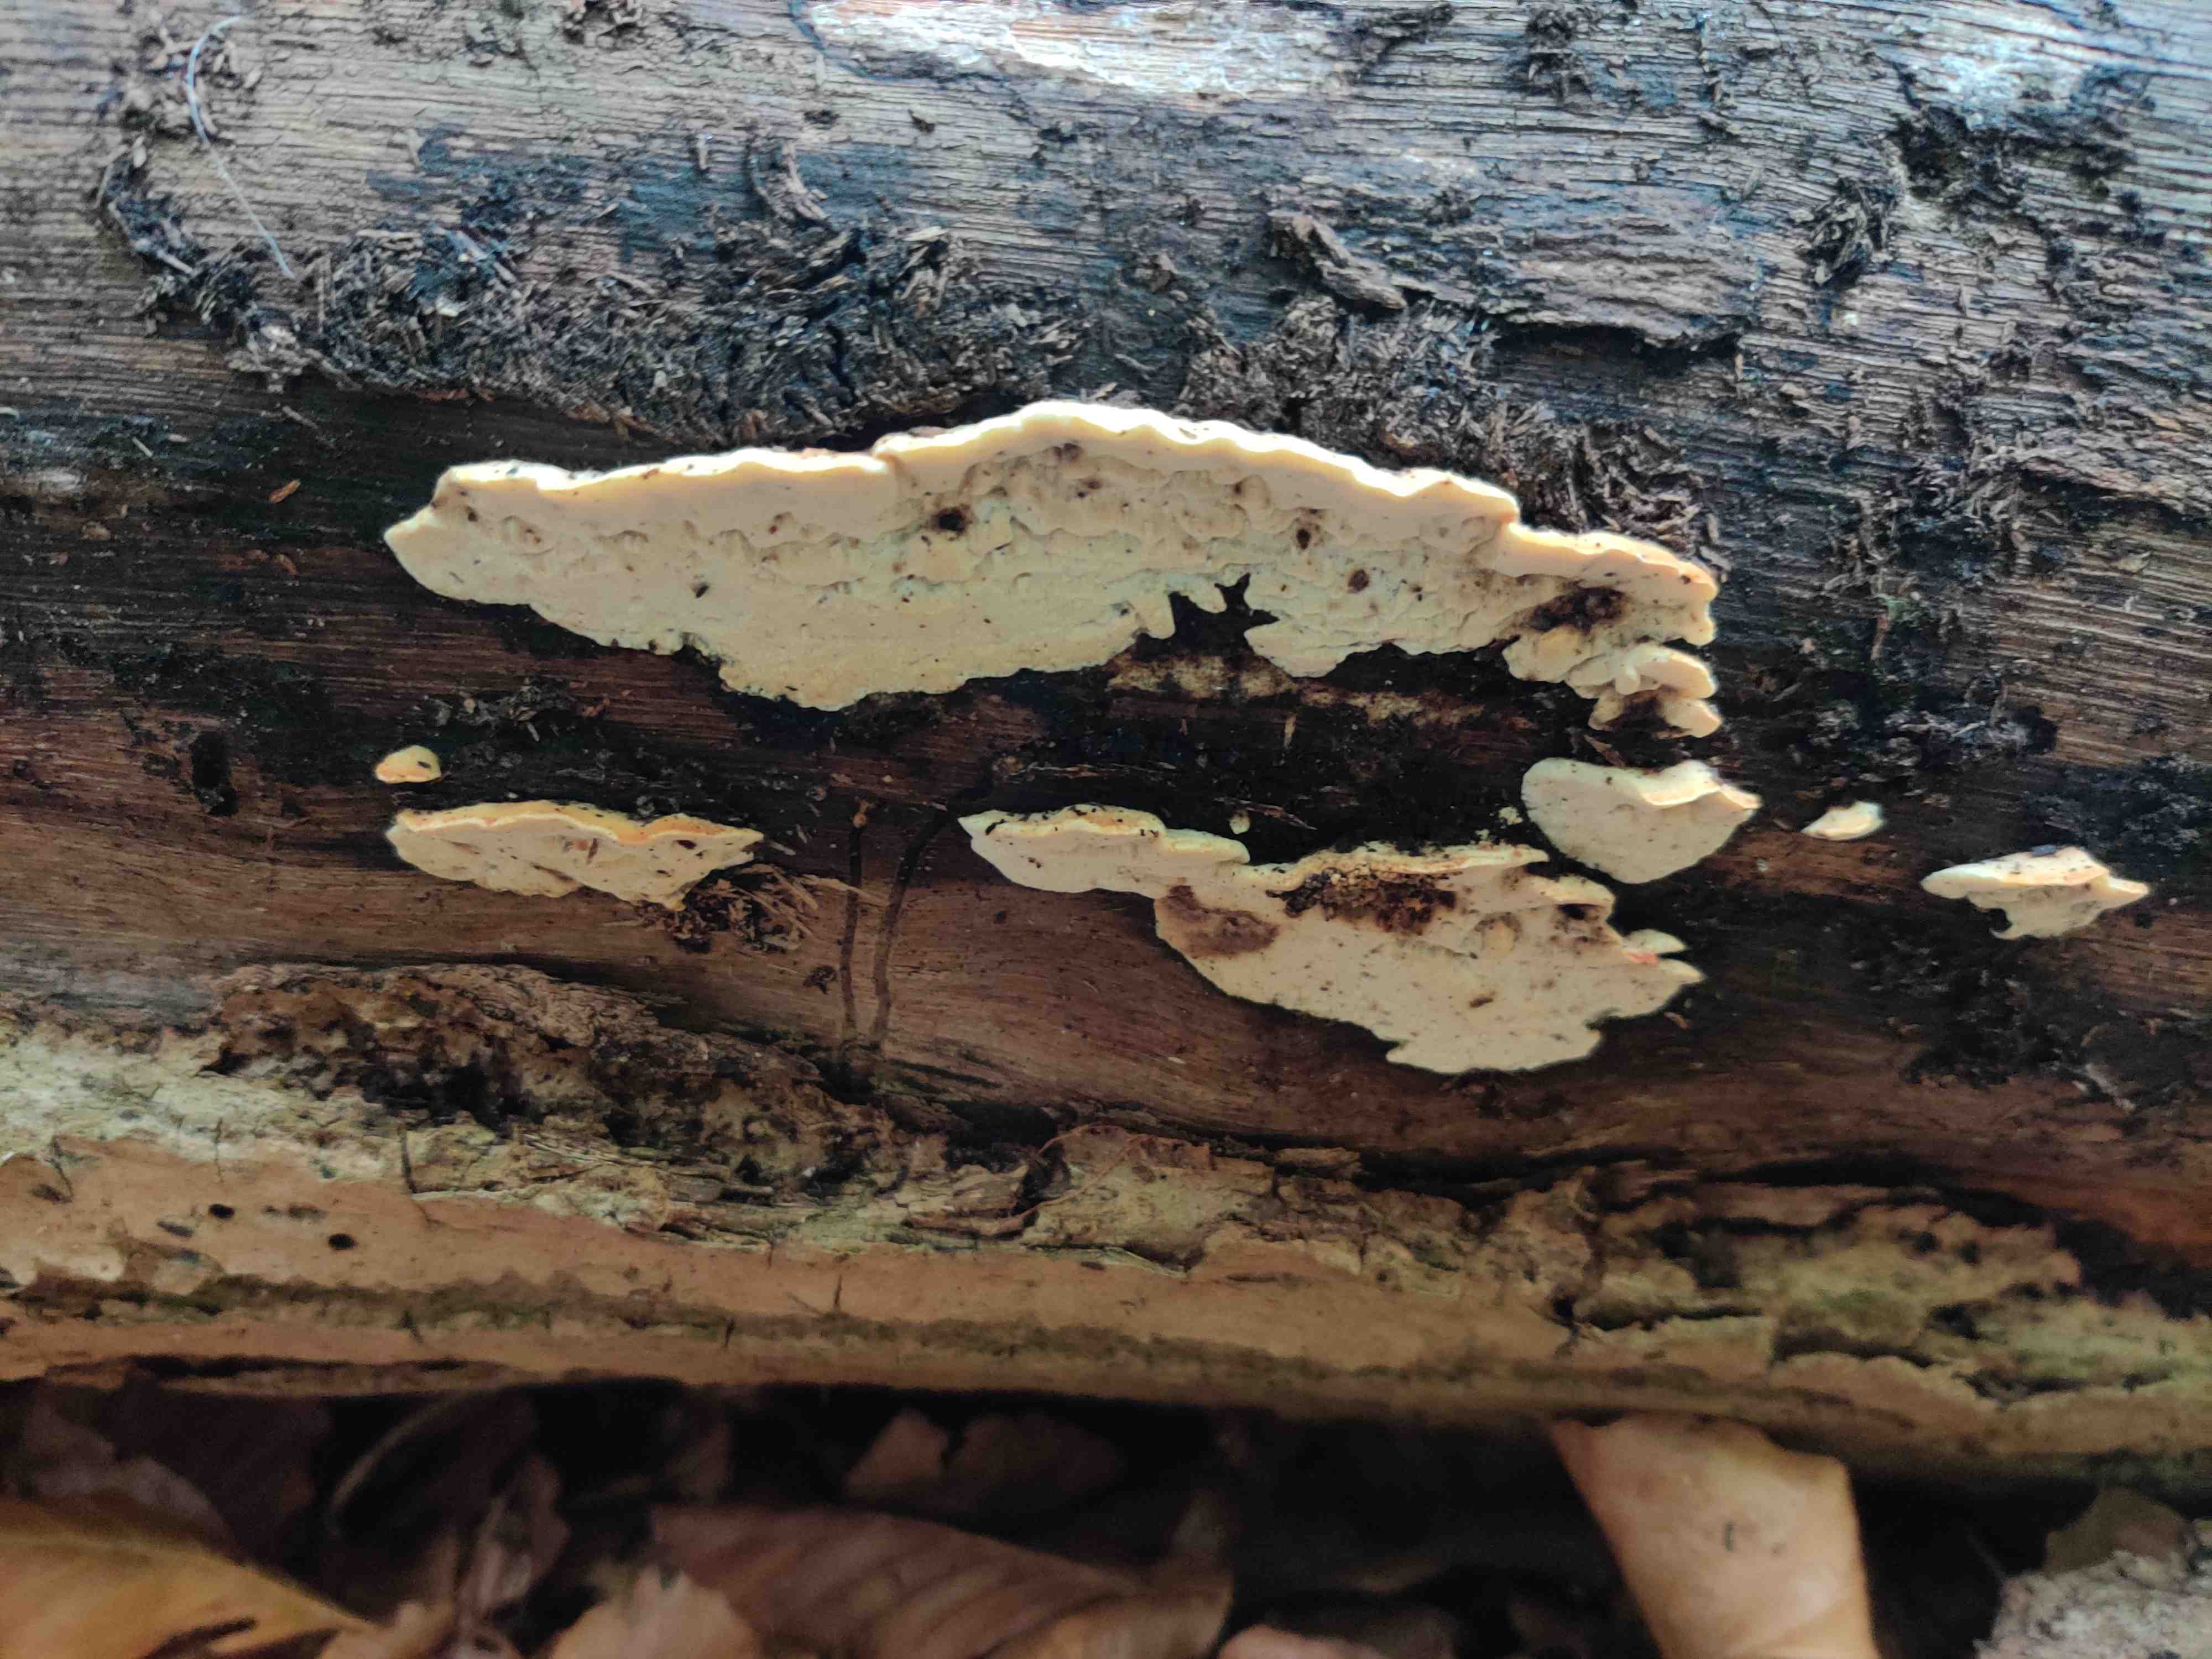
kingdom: Fungi
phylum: Basidiomycota
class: Agaricomycetes
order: Polyporales
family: Incrustoporiaceae
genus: Skeletocutis
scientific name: Skeletocutis nemoralis
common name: stor krystalporesvamp
